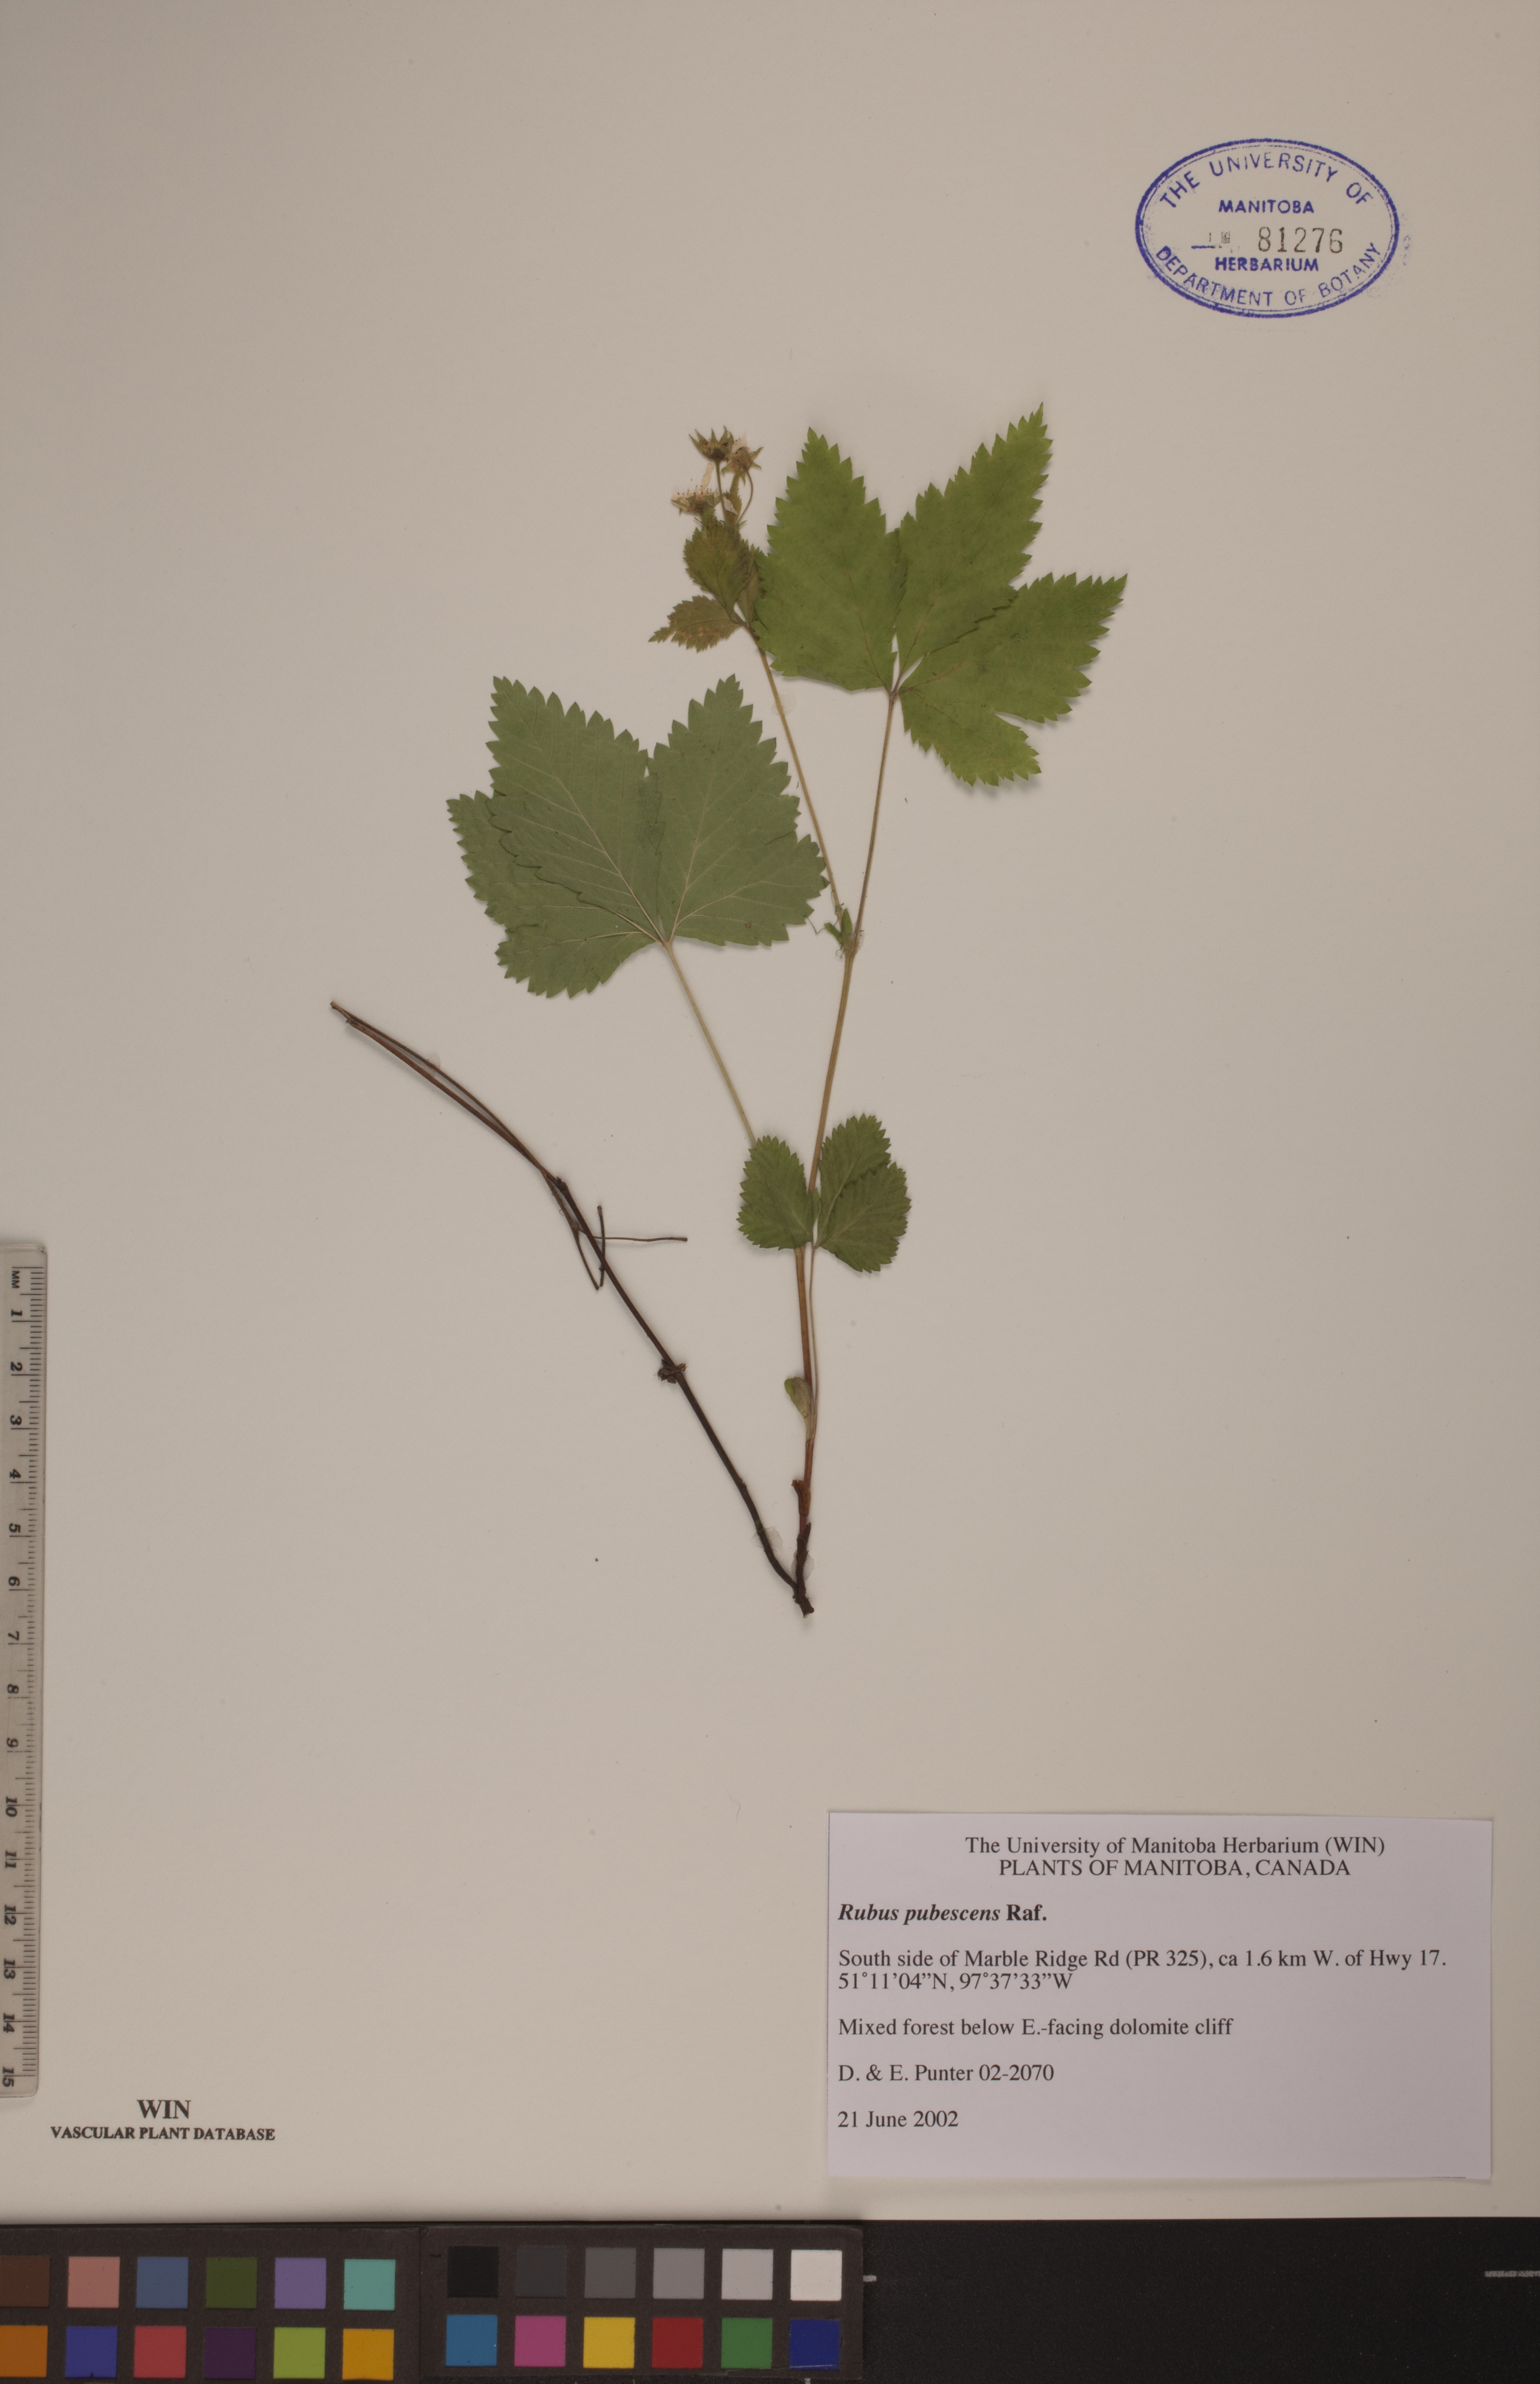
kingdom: Plantae
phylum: Tracheophyta
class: Magnoliopsida
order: Rosales
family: Rosaceae
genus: Rubus
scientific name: Rubus pubescens
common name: Dwarf raspberry
